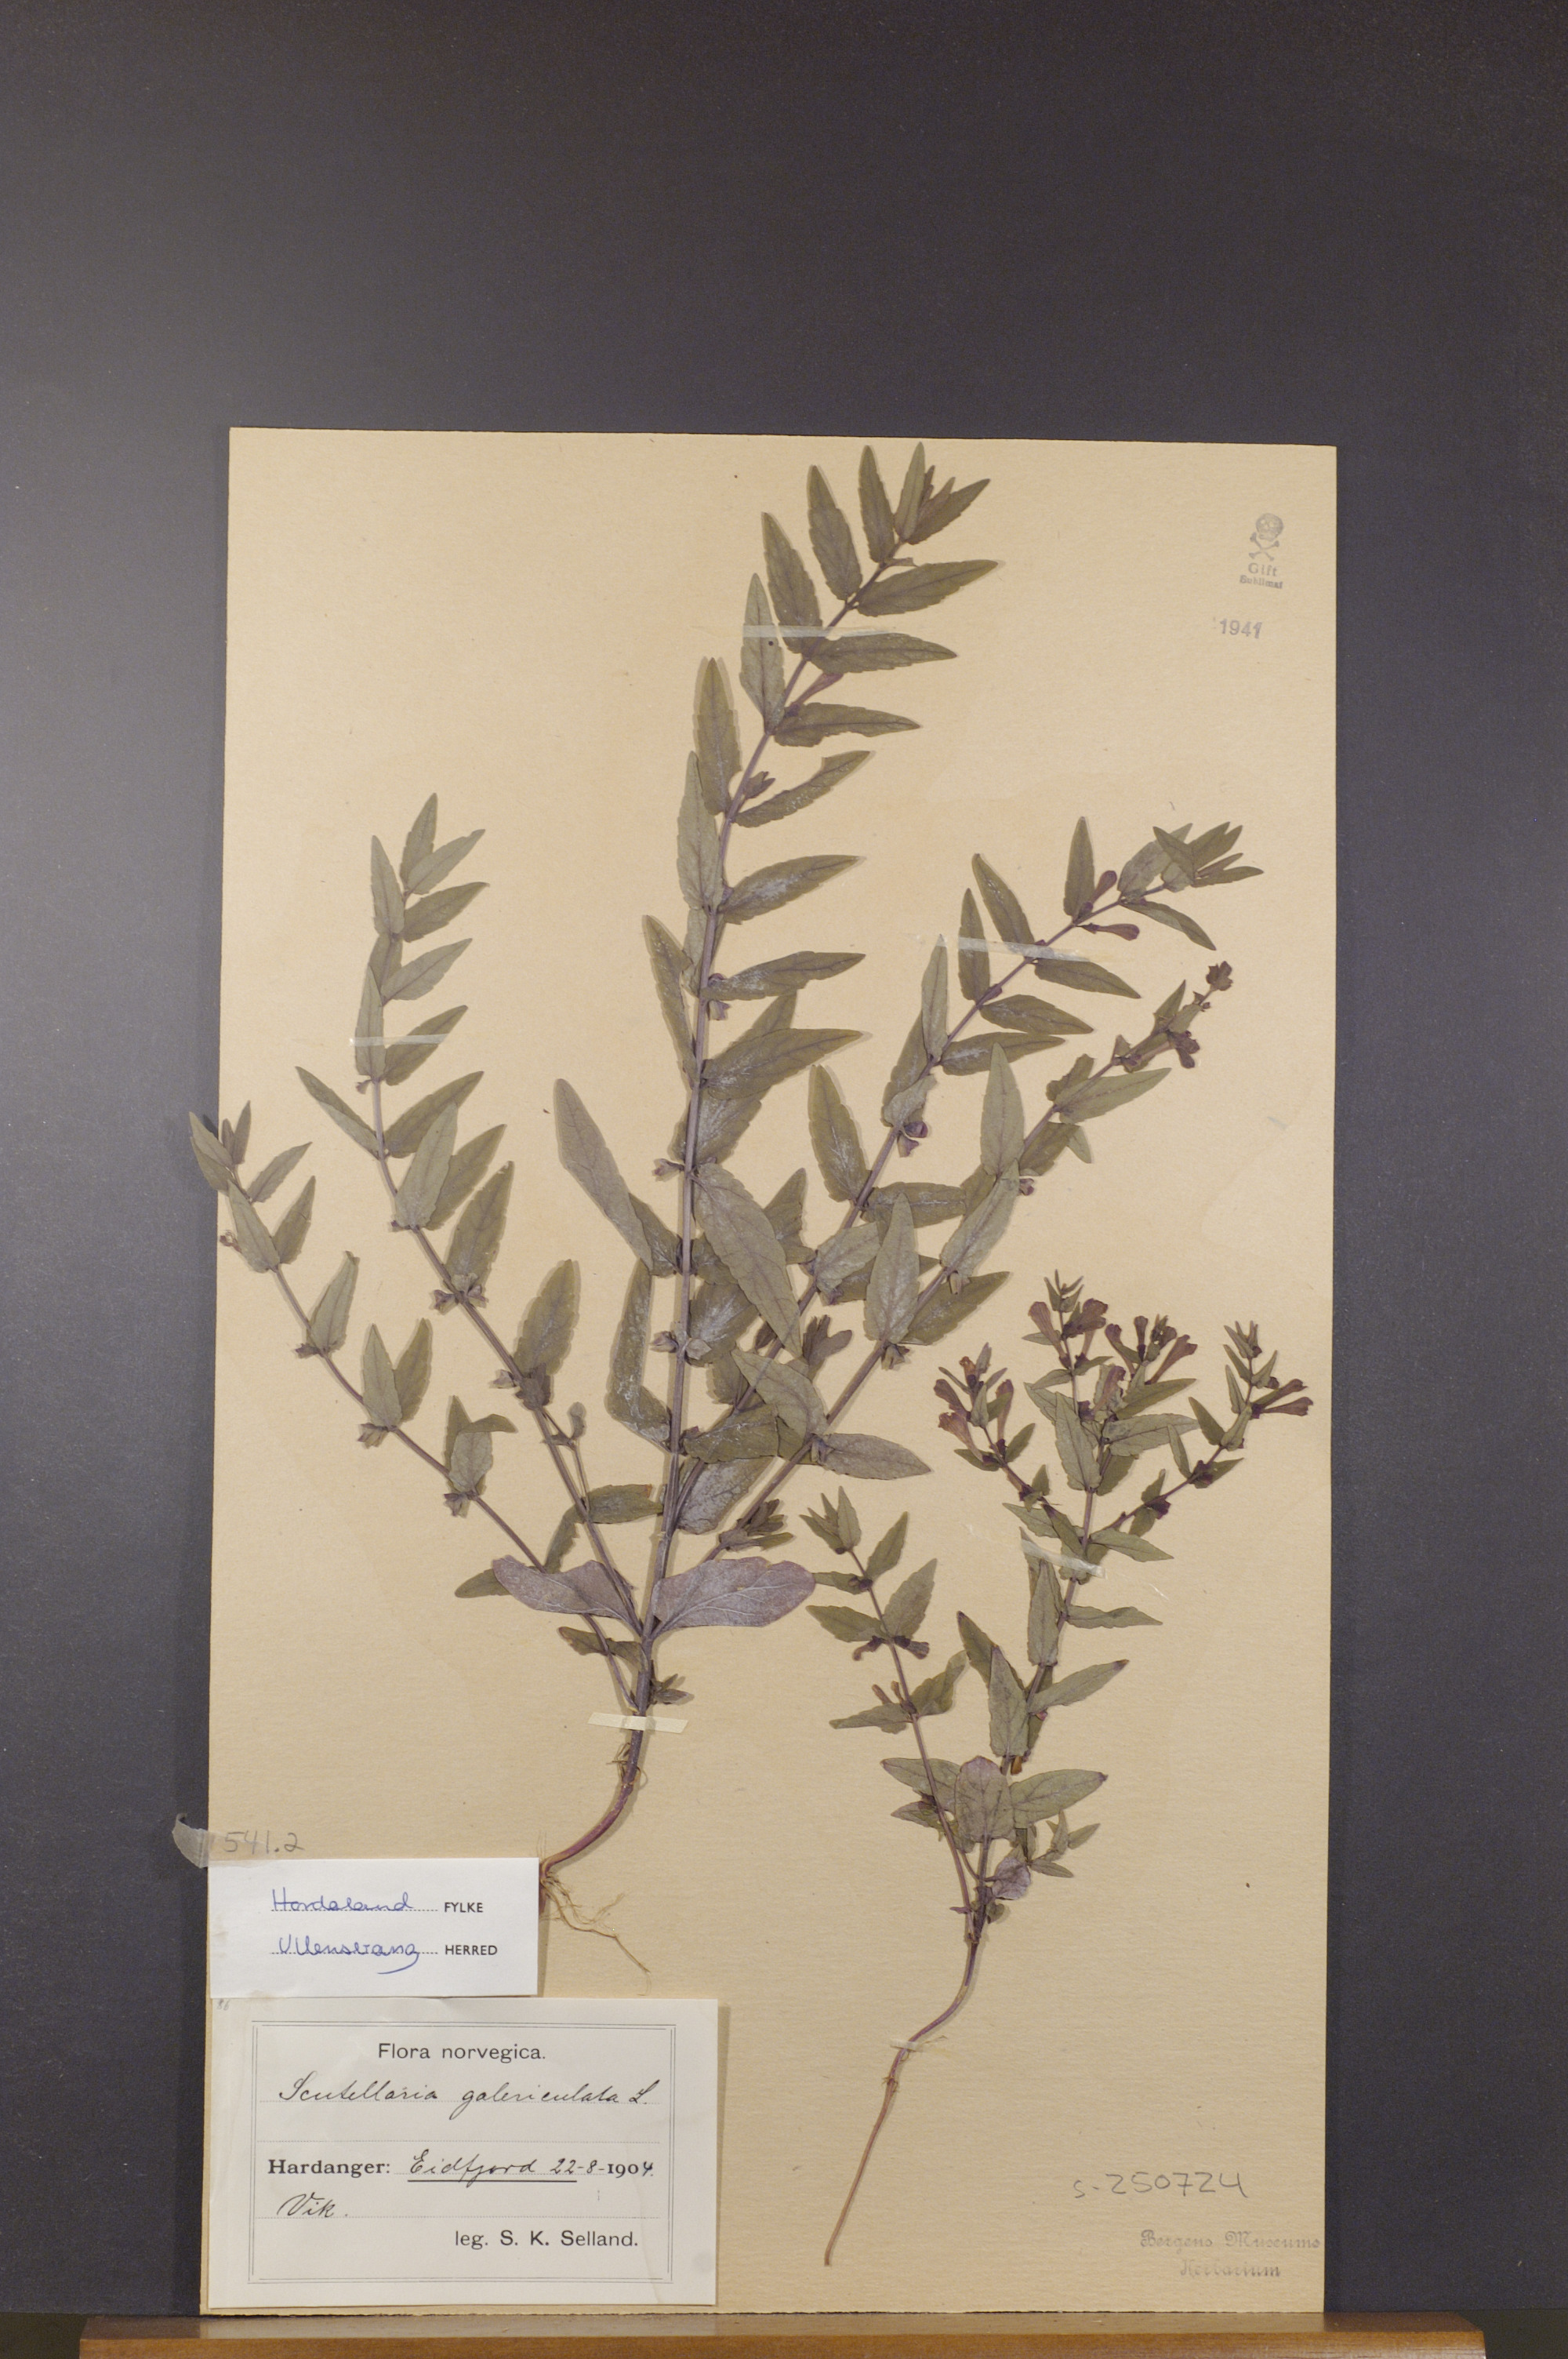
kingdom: Plantae
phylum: Tracheophyta
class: Magnoliopsida
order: Lamiales
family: Lamiaceae
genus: Scutellaria
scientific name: Scutellaria galericulata
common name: Skullcap
